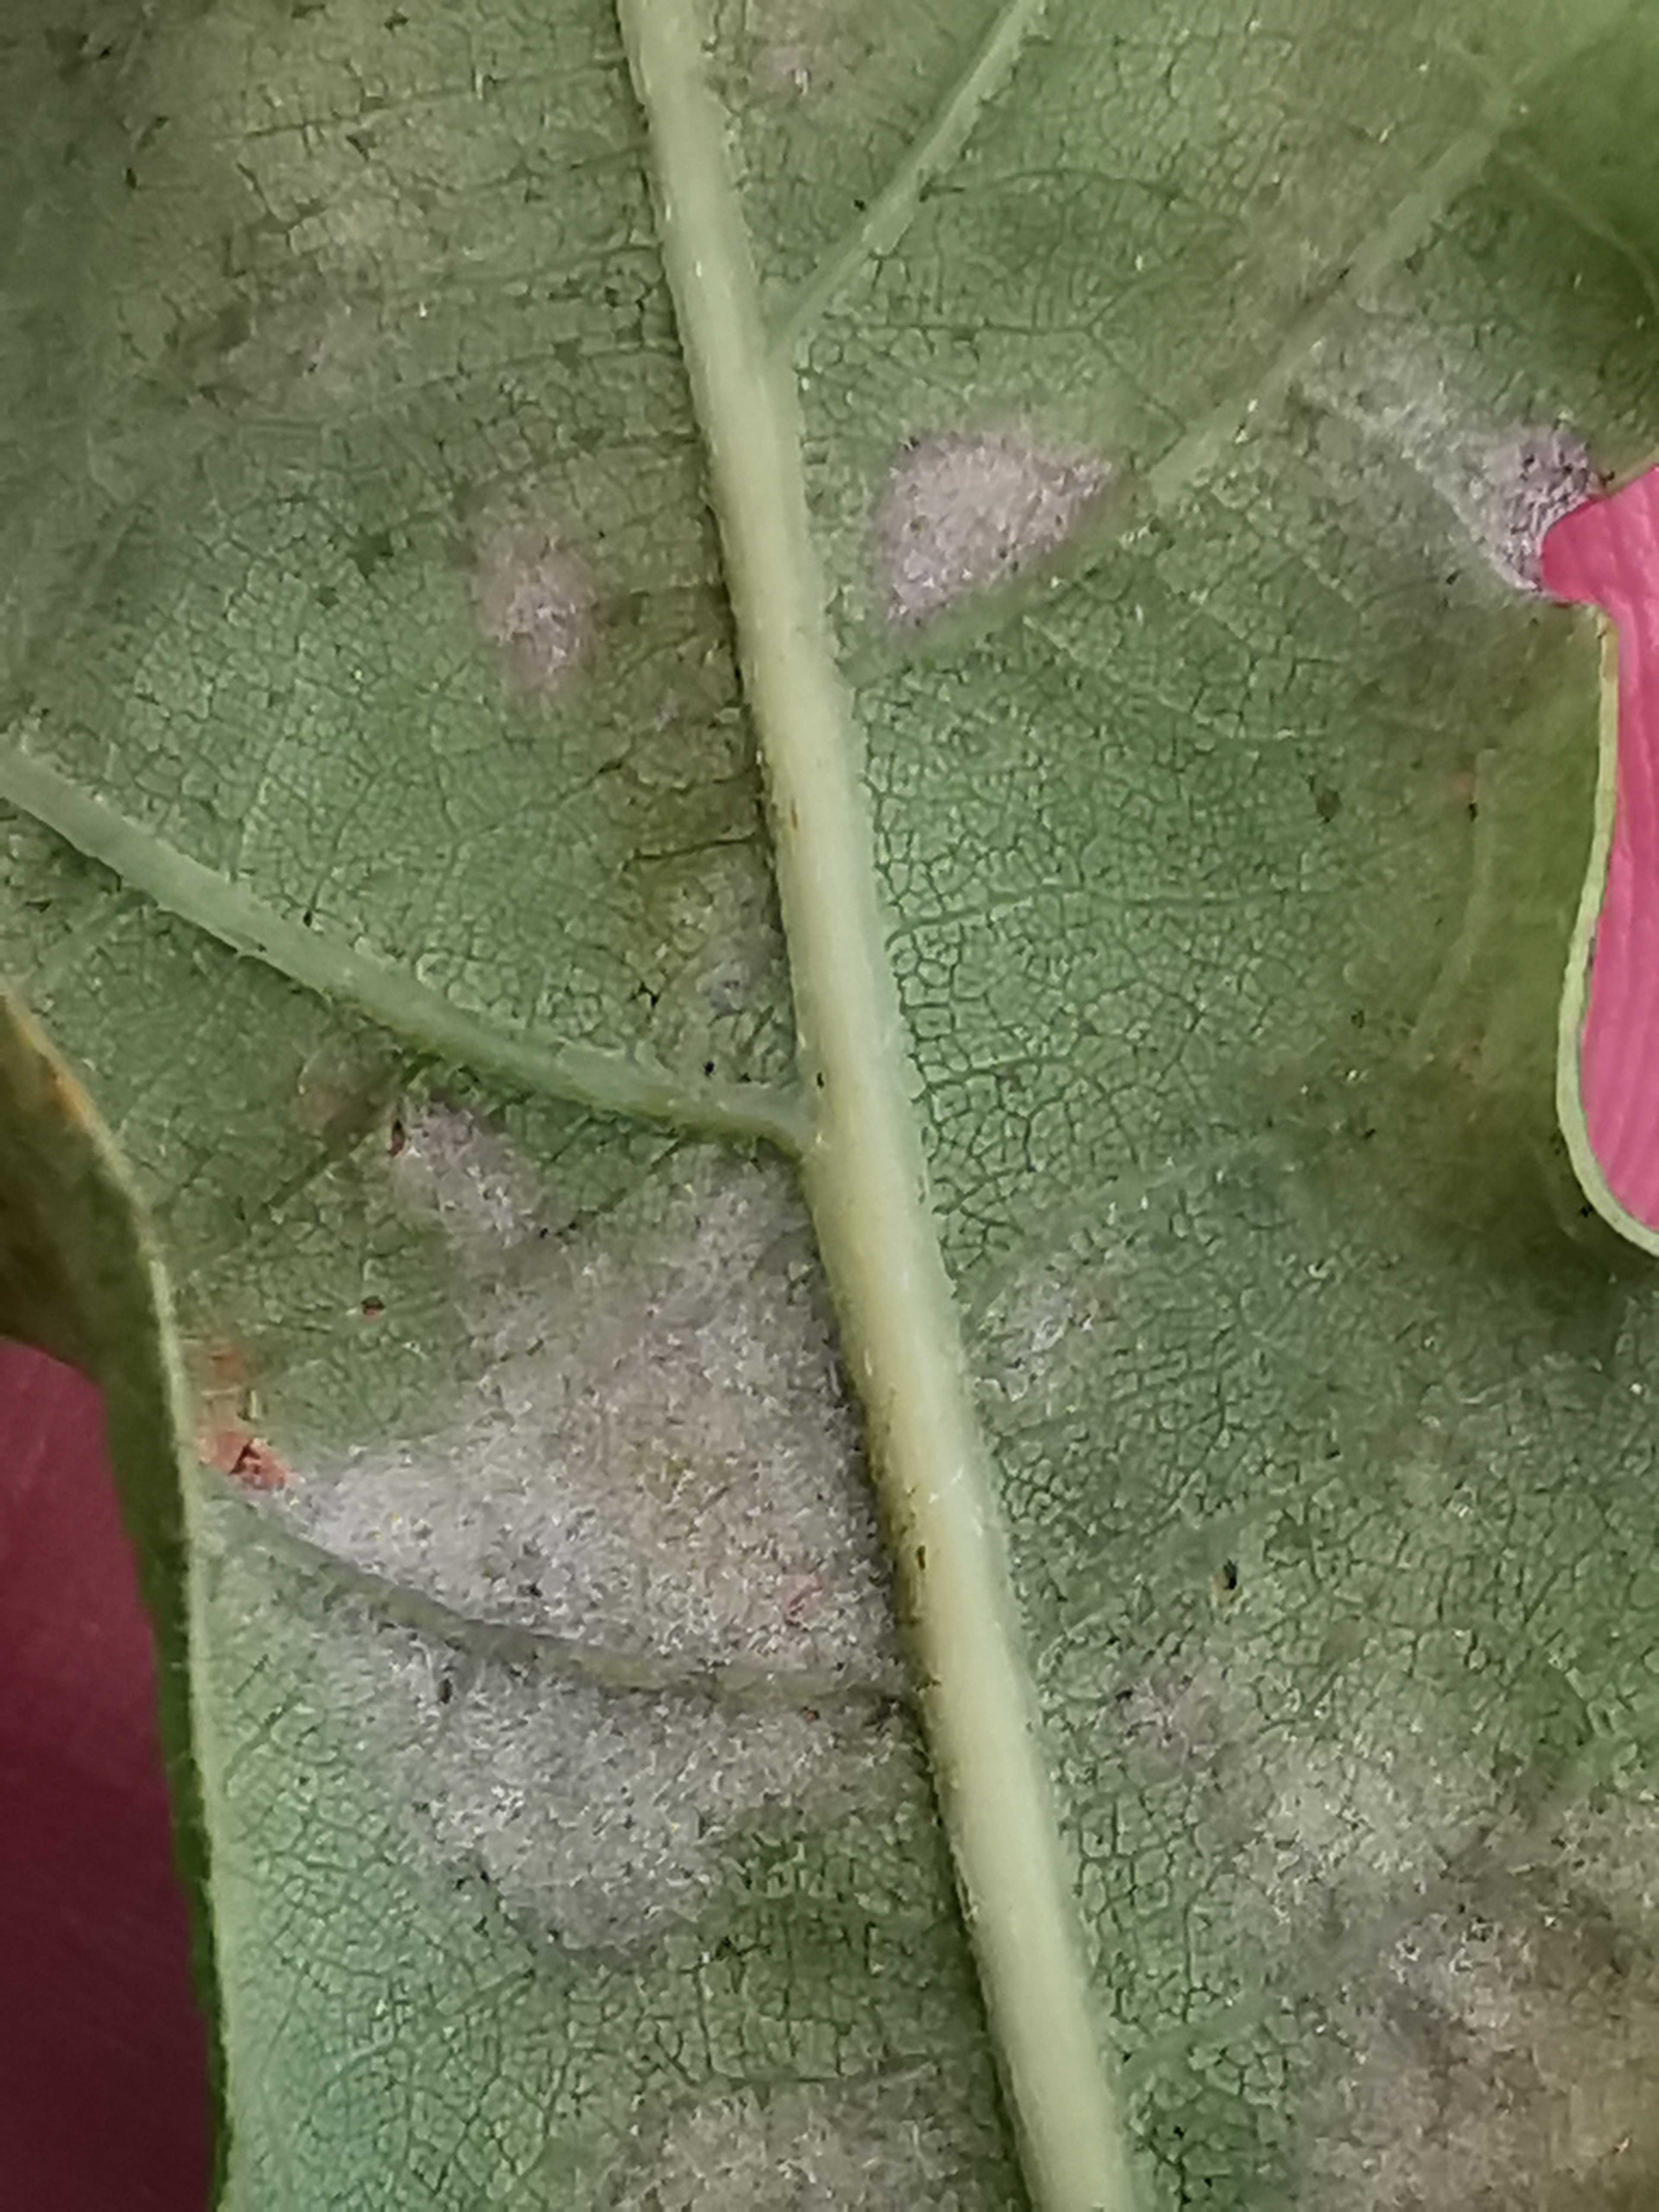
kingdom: Fungi
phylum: Ascomycota
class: Leotiomycetes
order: Helotiales
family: Erysiphaceae
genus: Erysiphe
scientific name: Erysiphe alphitoides
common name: ege-meldug
